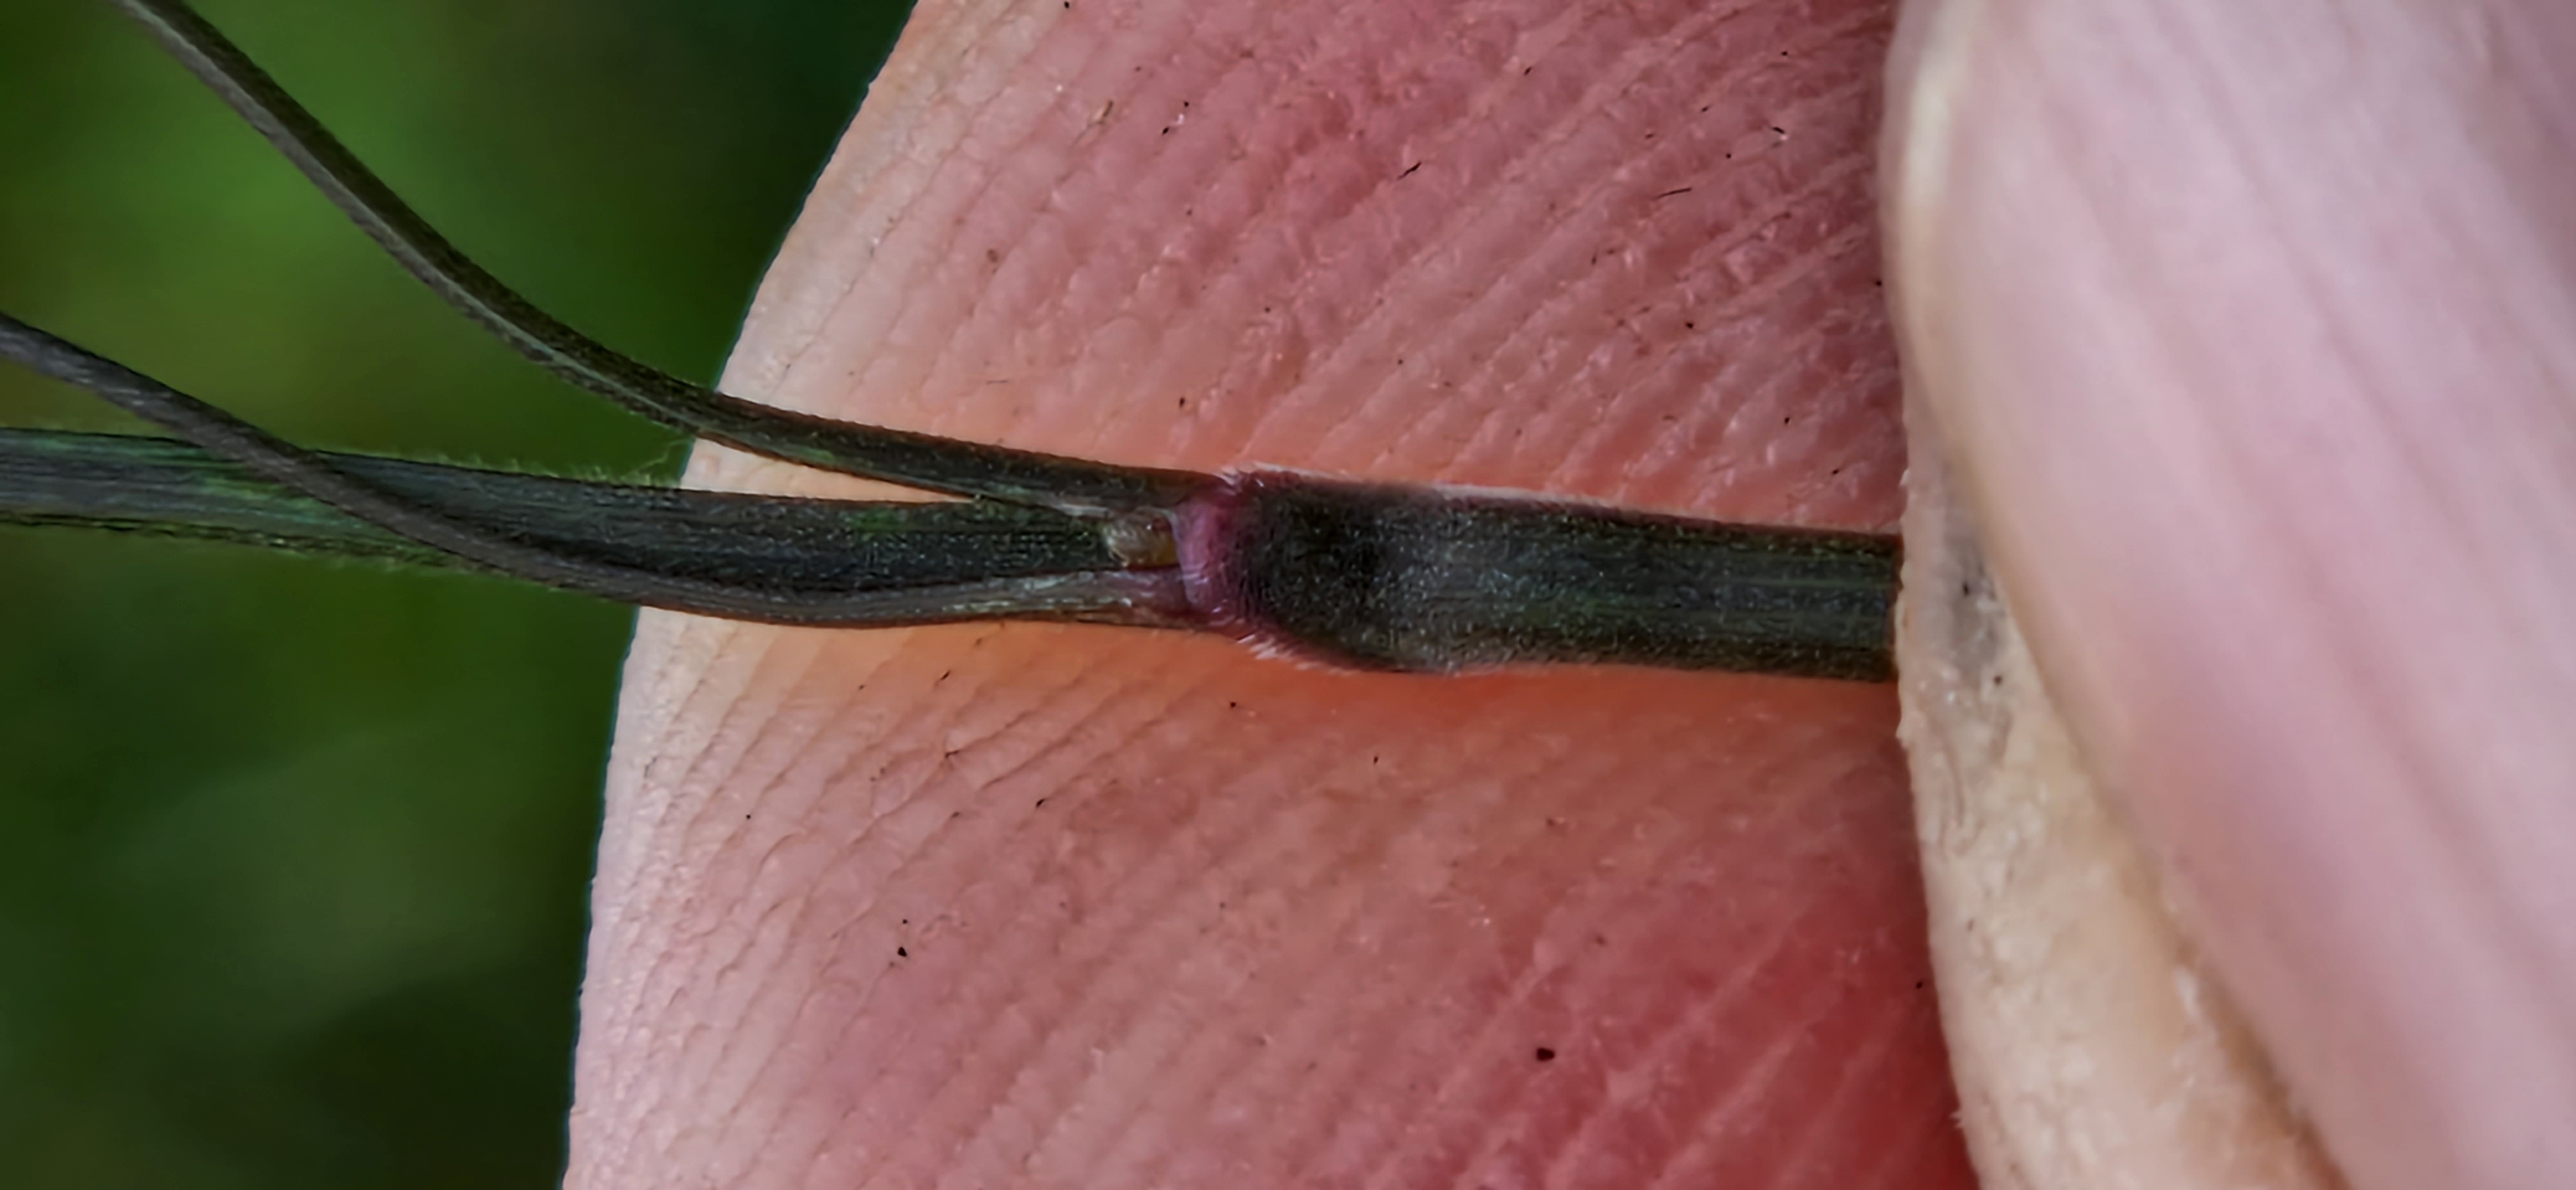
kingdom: Plantae
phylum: Tracheophyta
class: Liliopsida
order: Poales
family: Poaceae
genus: Bromus
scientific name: Bromus ramosus
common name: Sildig skov-hejre
